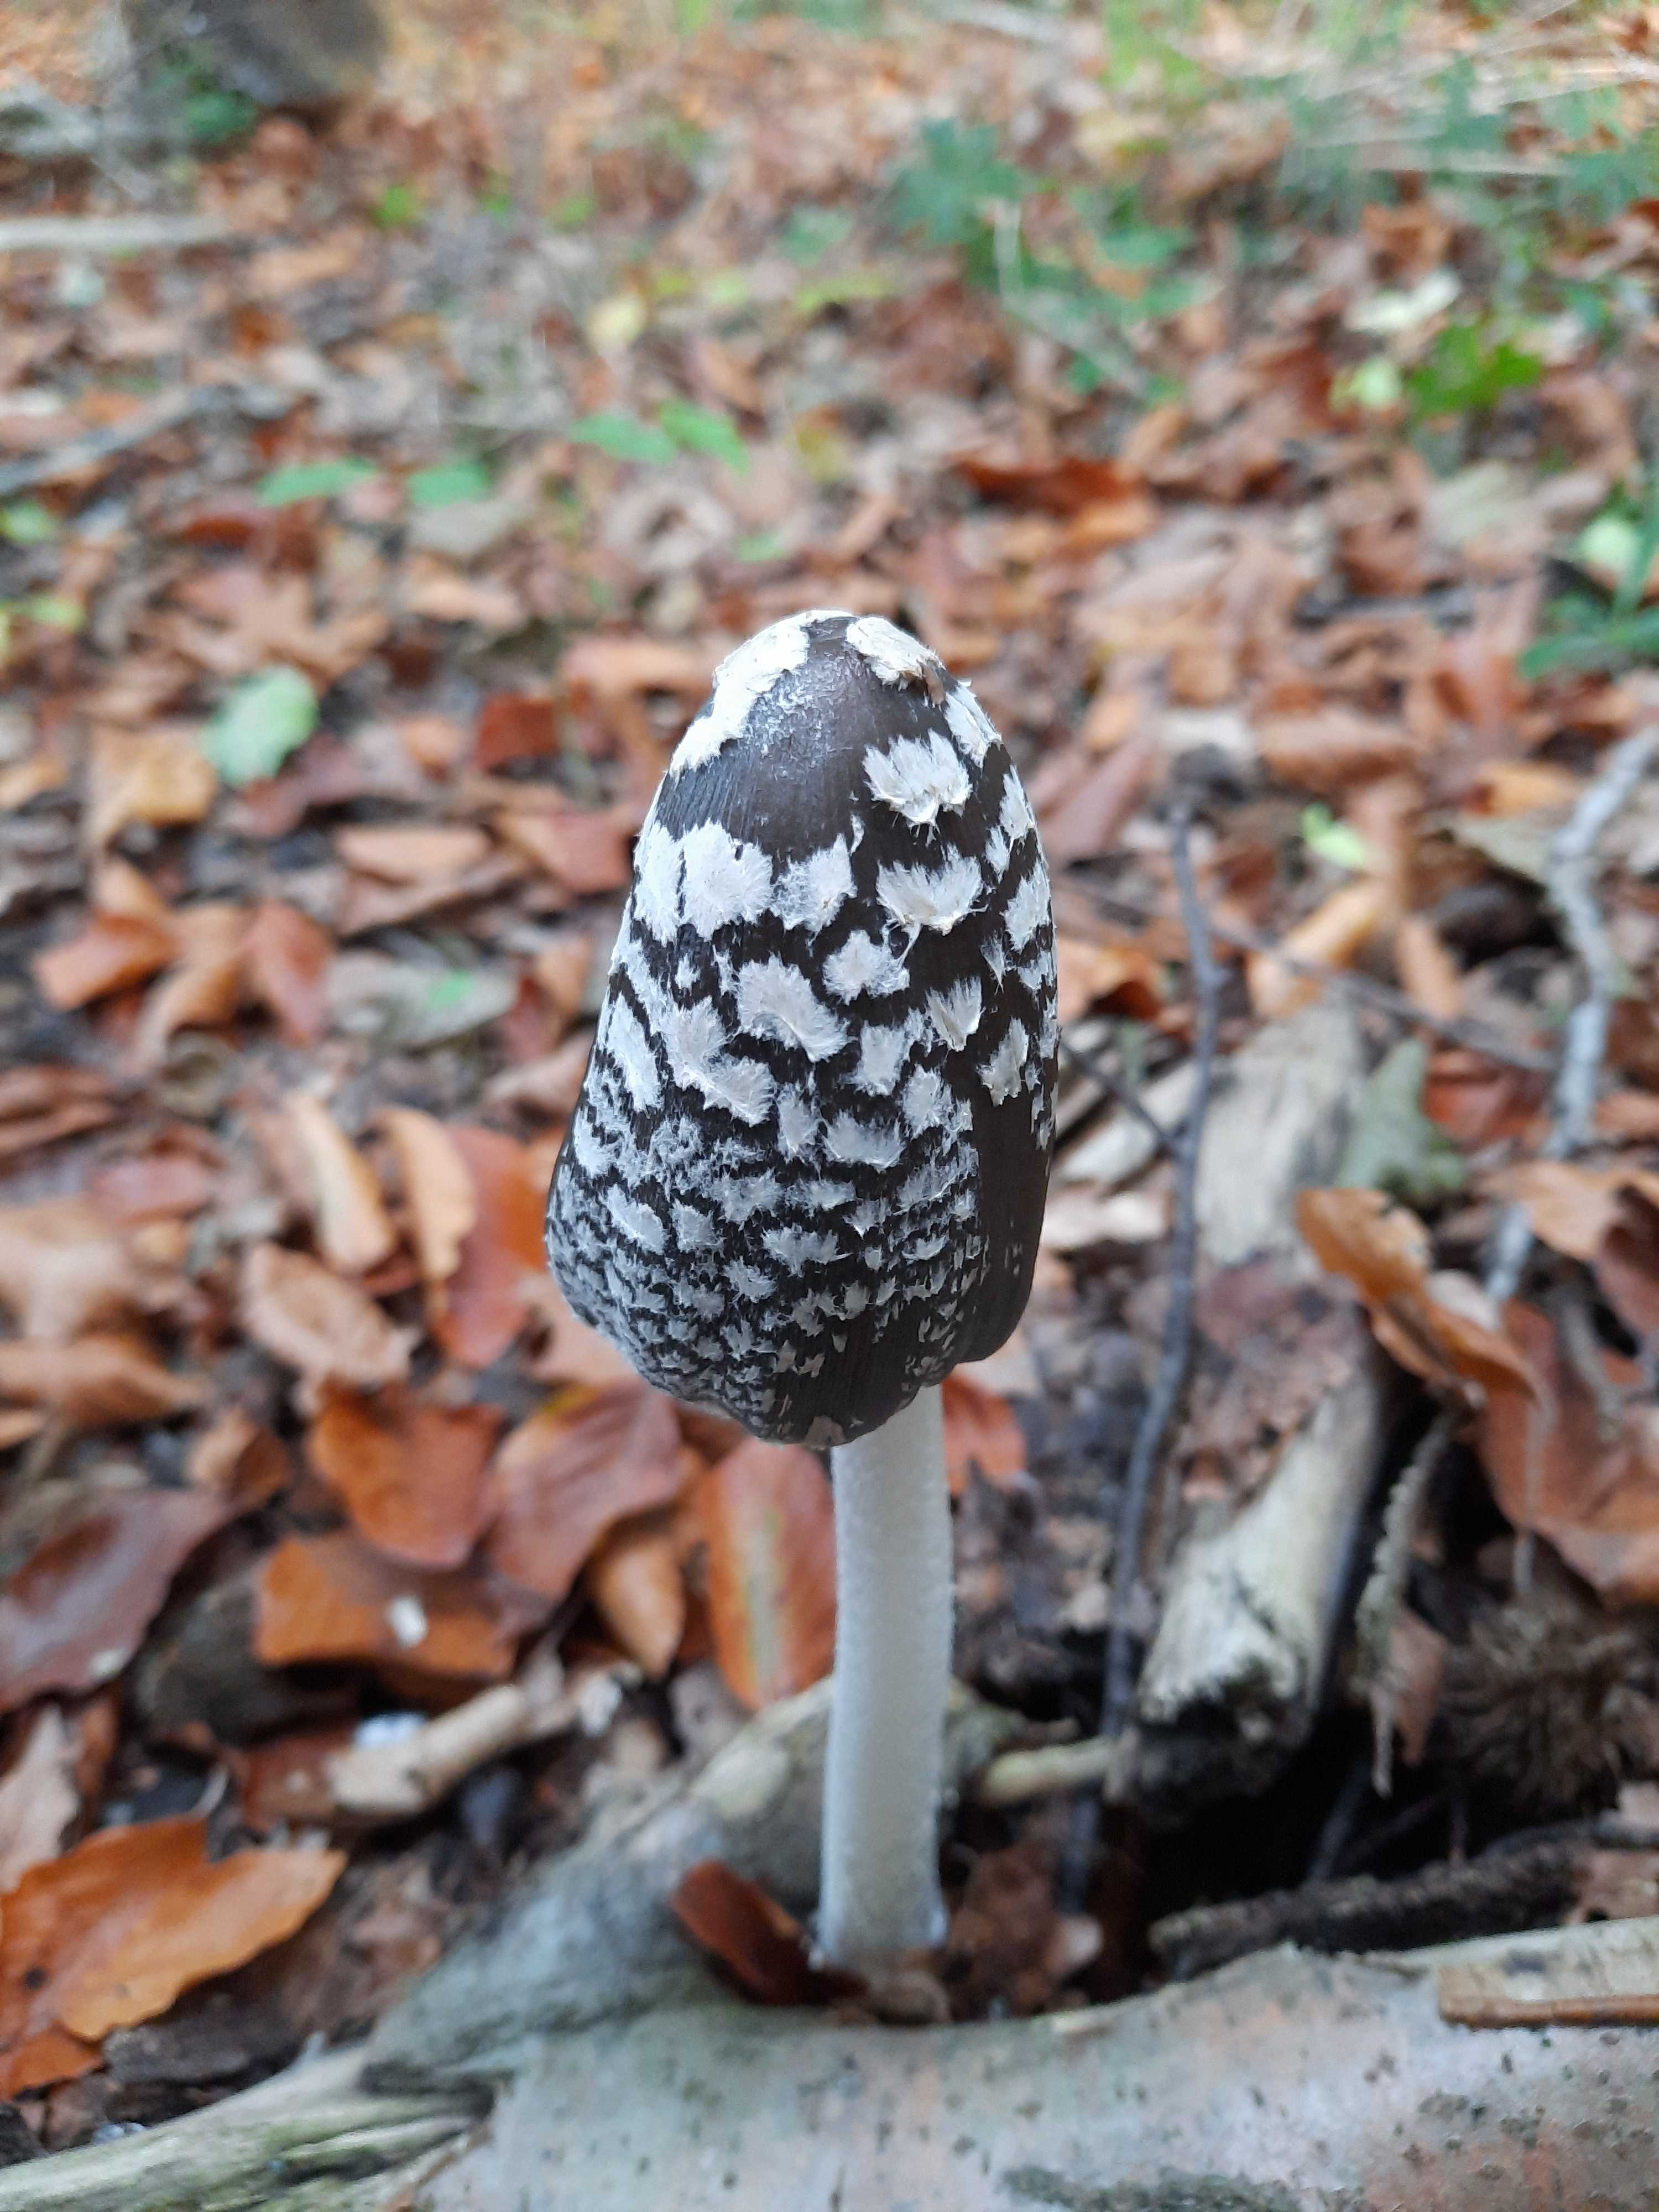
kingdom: Fungi
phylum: Basidiomycota
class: Agaricomycetes
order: Agaricales
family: Psathyrellaceae
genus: Coprinopsis
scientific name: Coprinopsis picacea
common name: skade-blækhat
